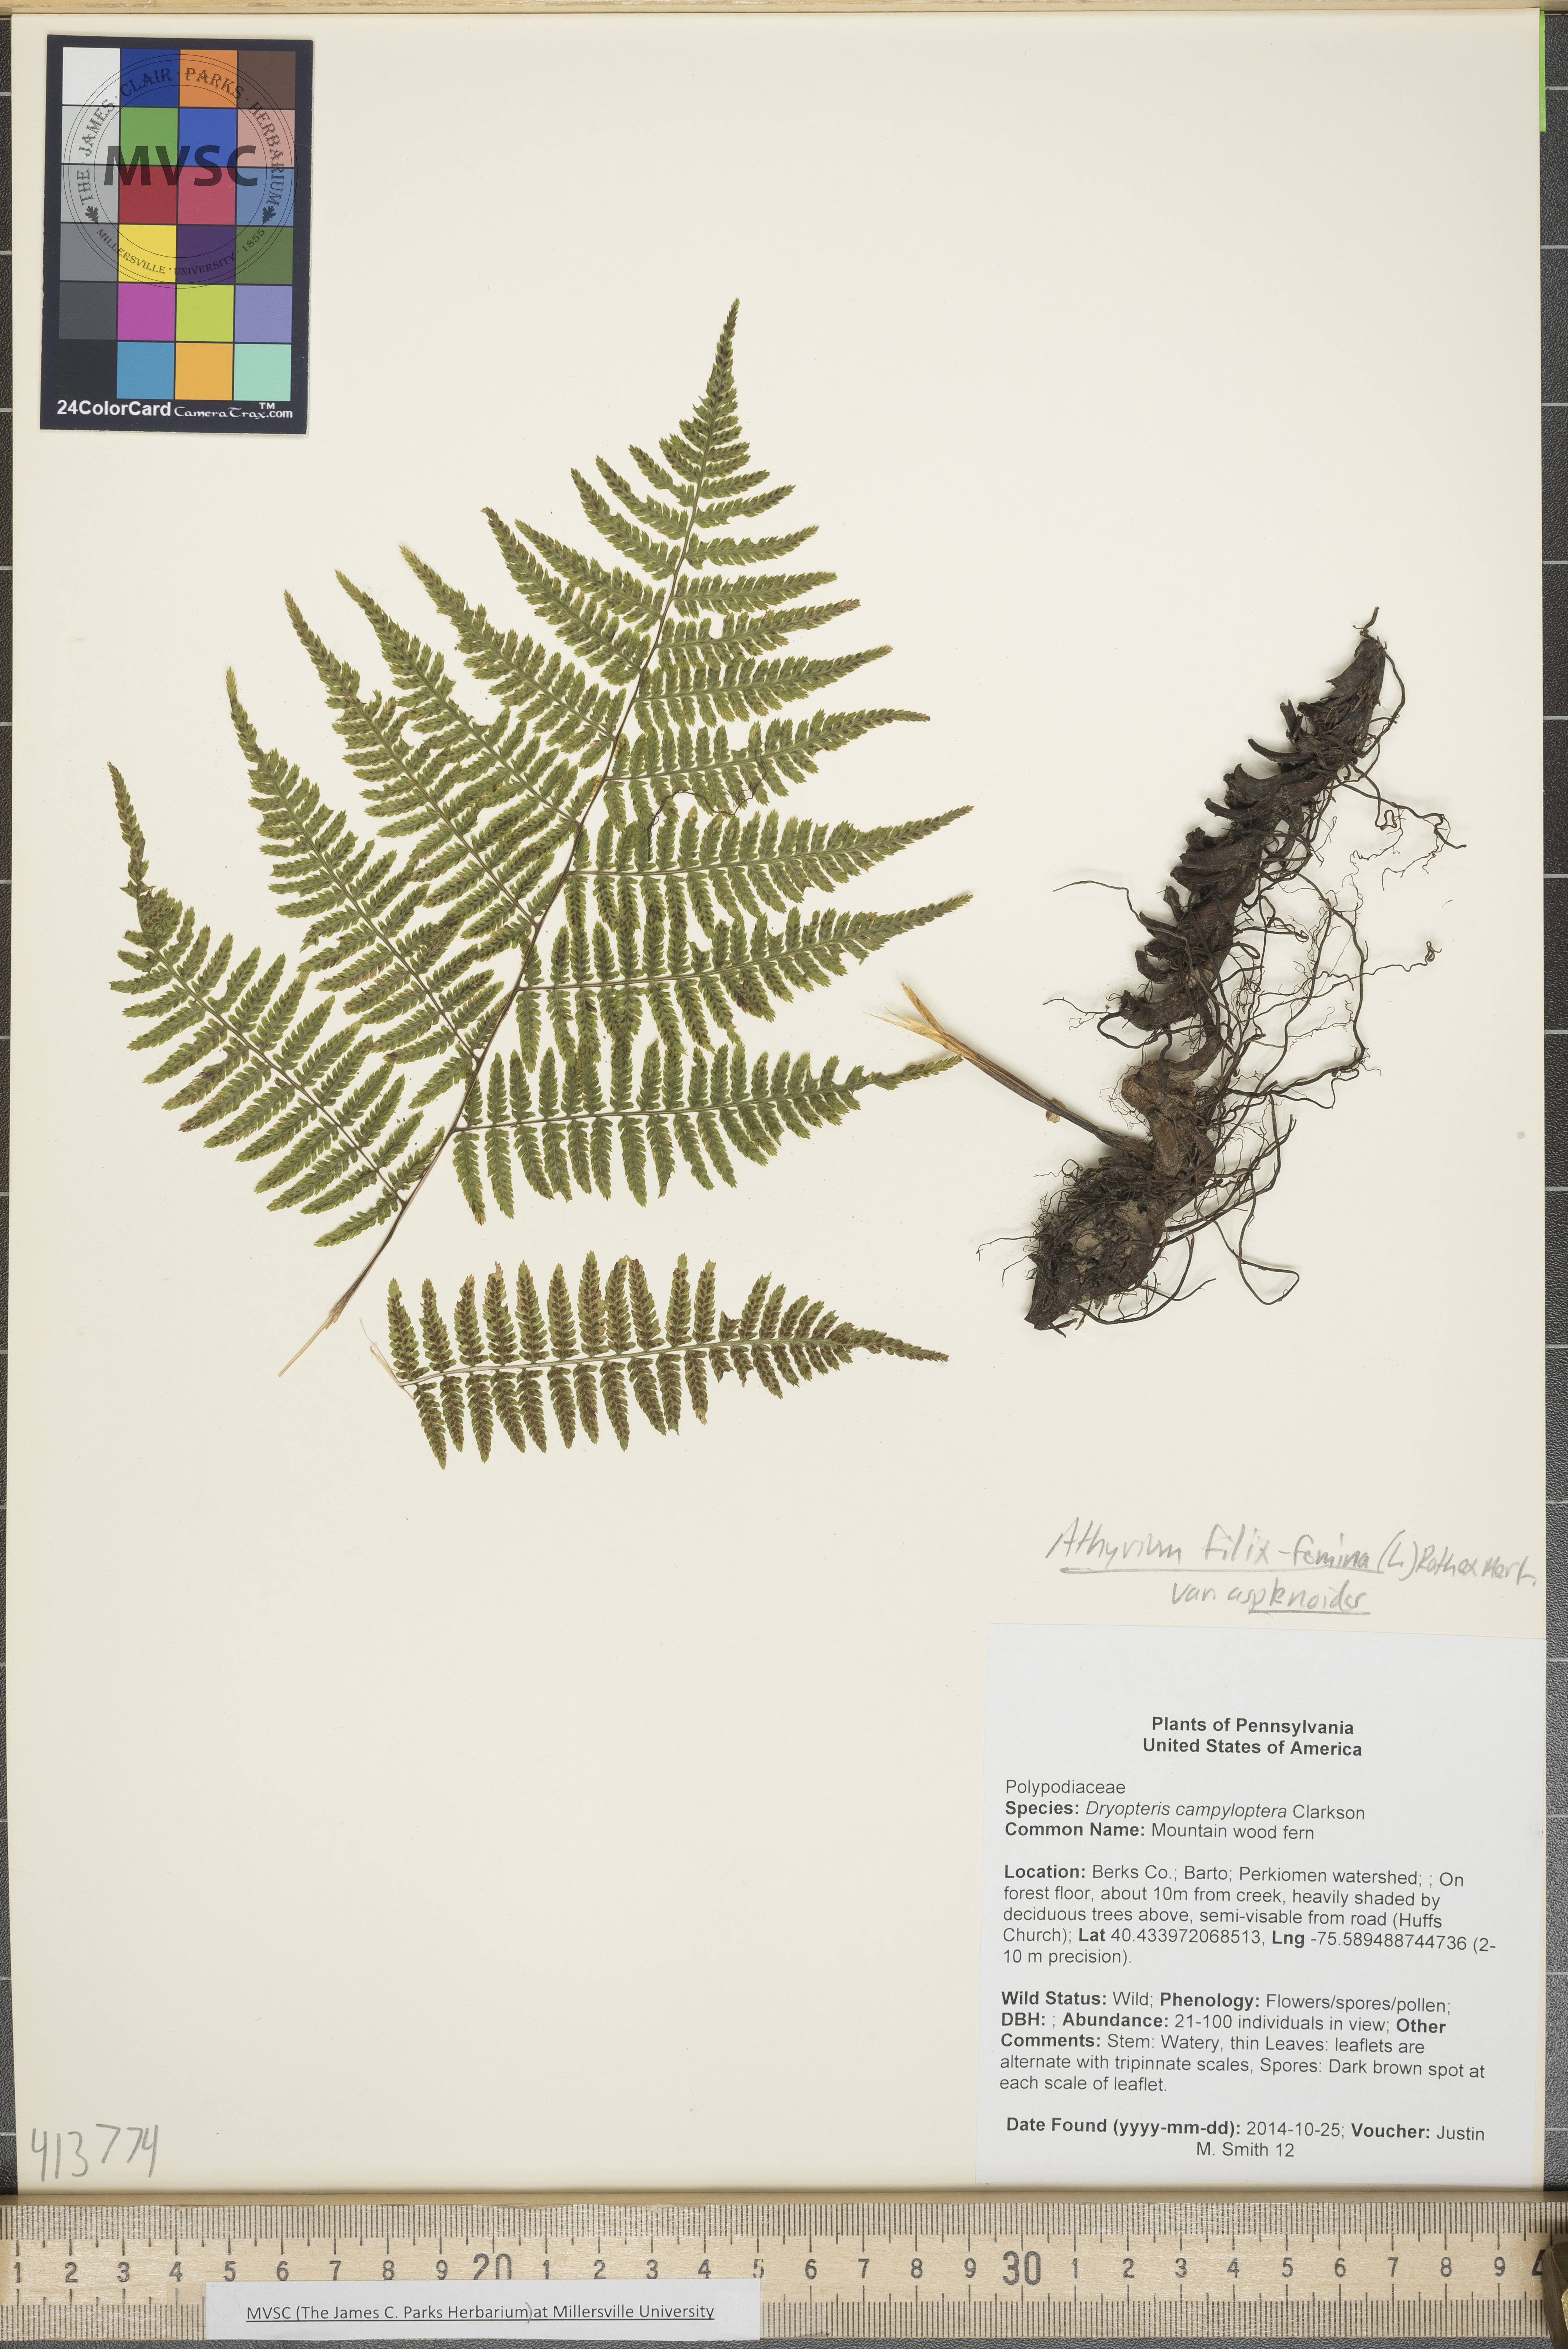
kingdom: Plantae
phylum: Tracheophyta
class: Polypodiopsida
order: Polypodiales
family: Athyriaceae
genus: Athyrium
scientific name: Athyrium filix-femina
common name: Lady fern
